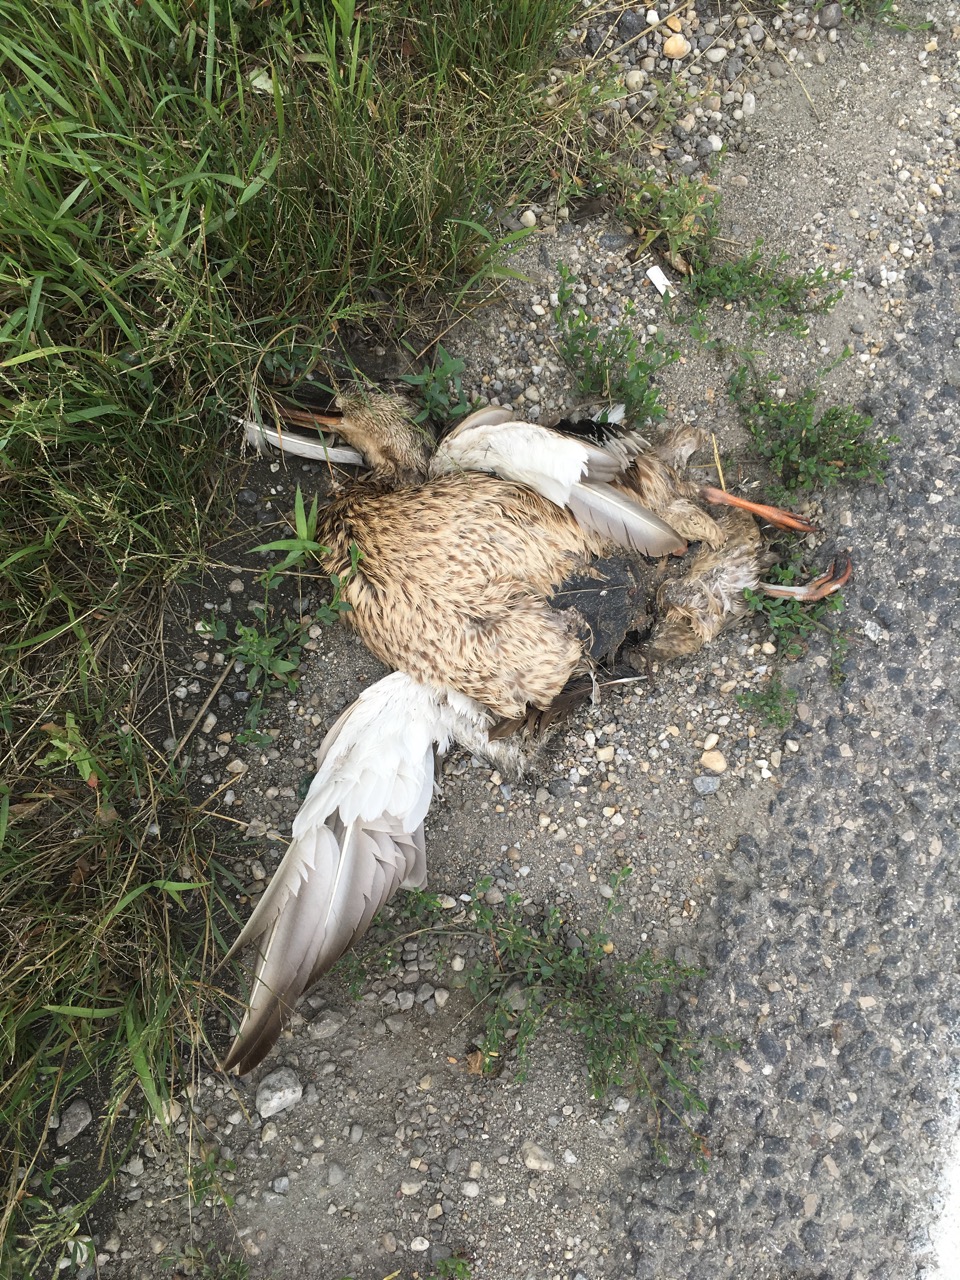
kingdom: Animalia
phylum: Chordata
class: Aves
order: Anseriformes
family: Anatidae
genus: Anas
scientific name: Anas platyrhynchos
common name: Mallard
